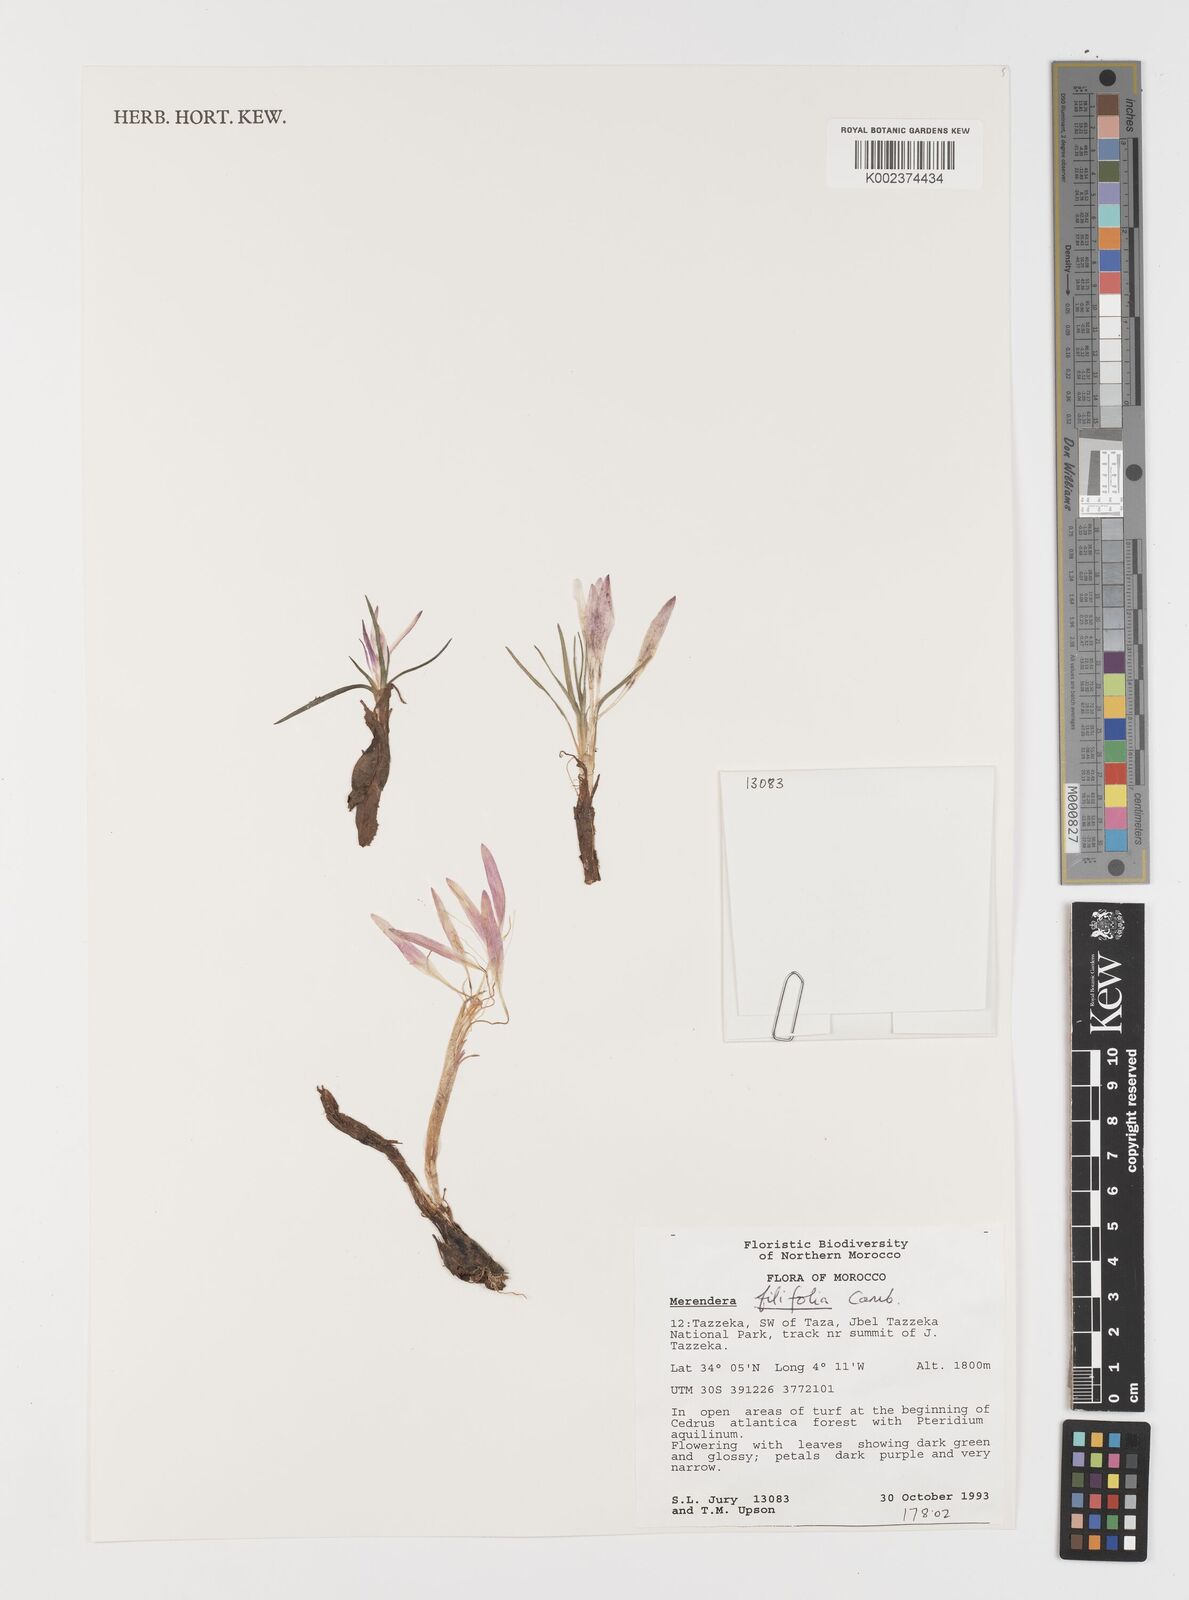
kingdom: Plantae
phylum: Tracheophyta
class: Liliopsida
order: Liliales
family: Colchicaceae
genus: Colchicum
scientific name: Colchicum filifolium
